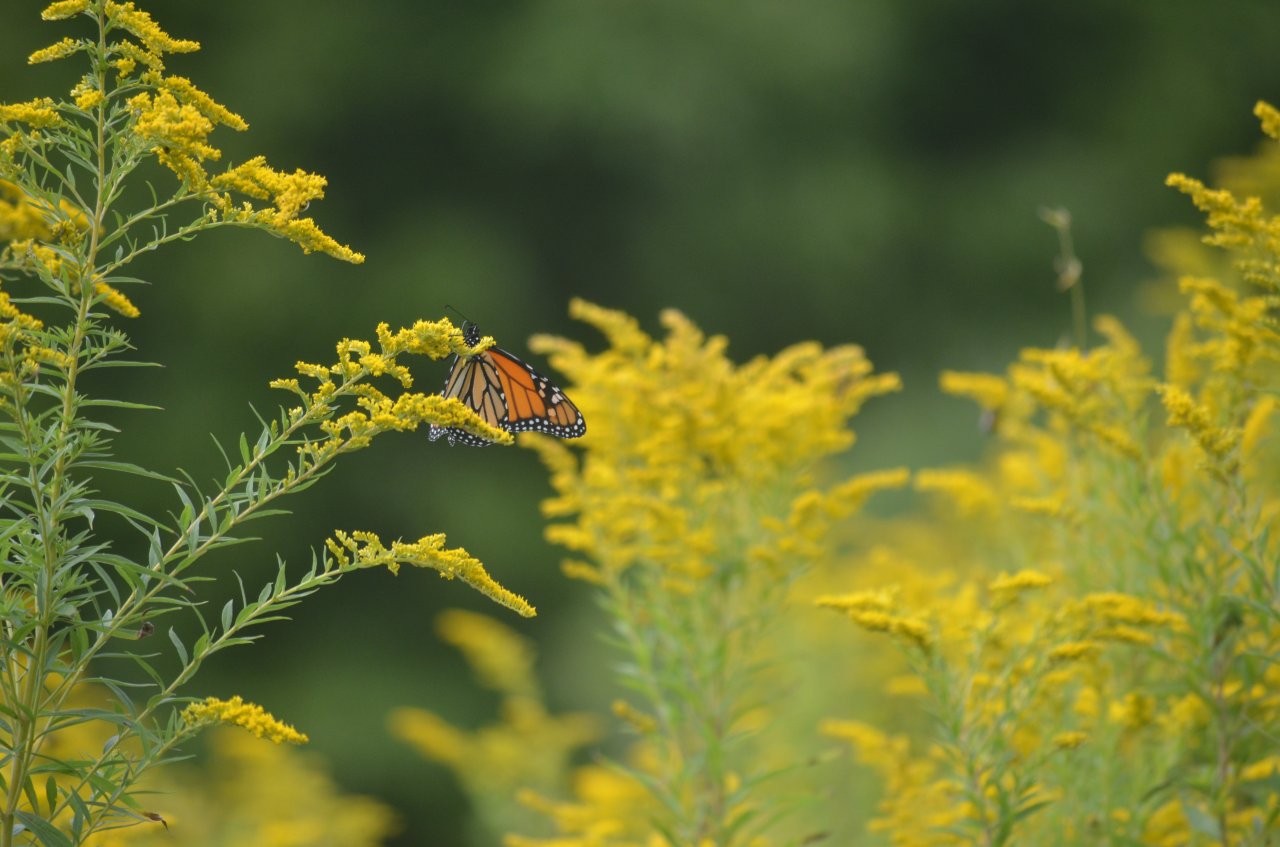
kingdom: Animalia
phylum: Arthropoda
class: Insecta
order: Lepidoptera
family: Nymphalidae
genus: Danaus
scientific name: Danaus plexippus
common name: Monarch
